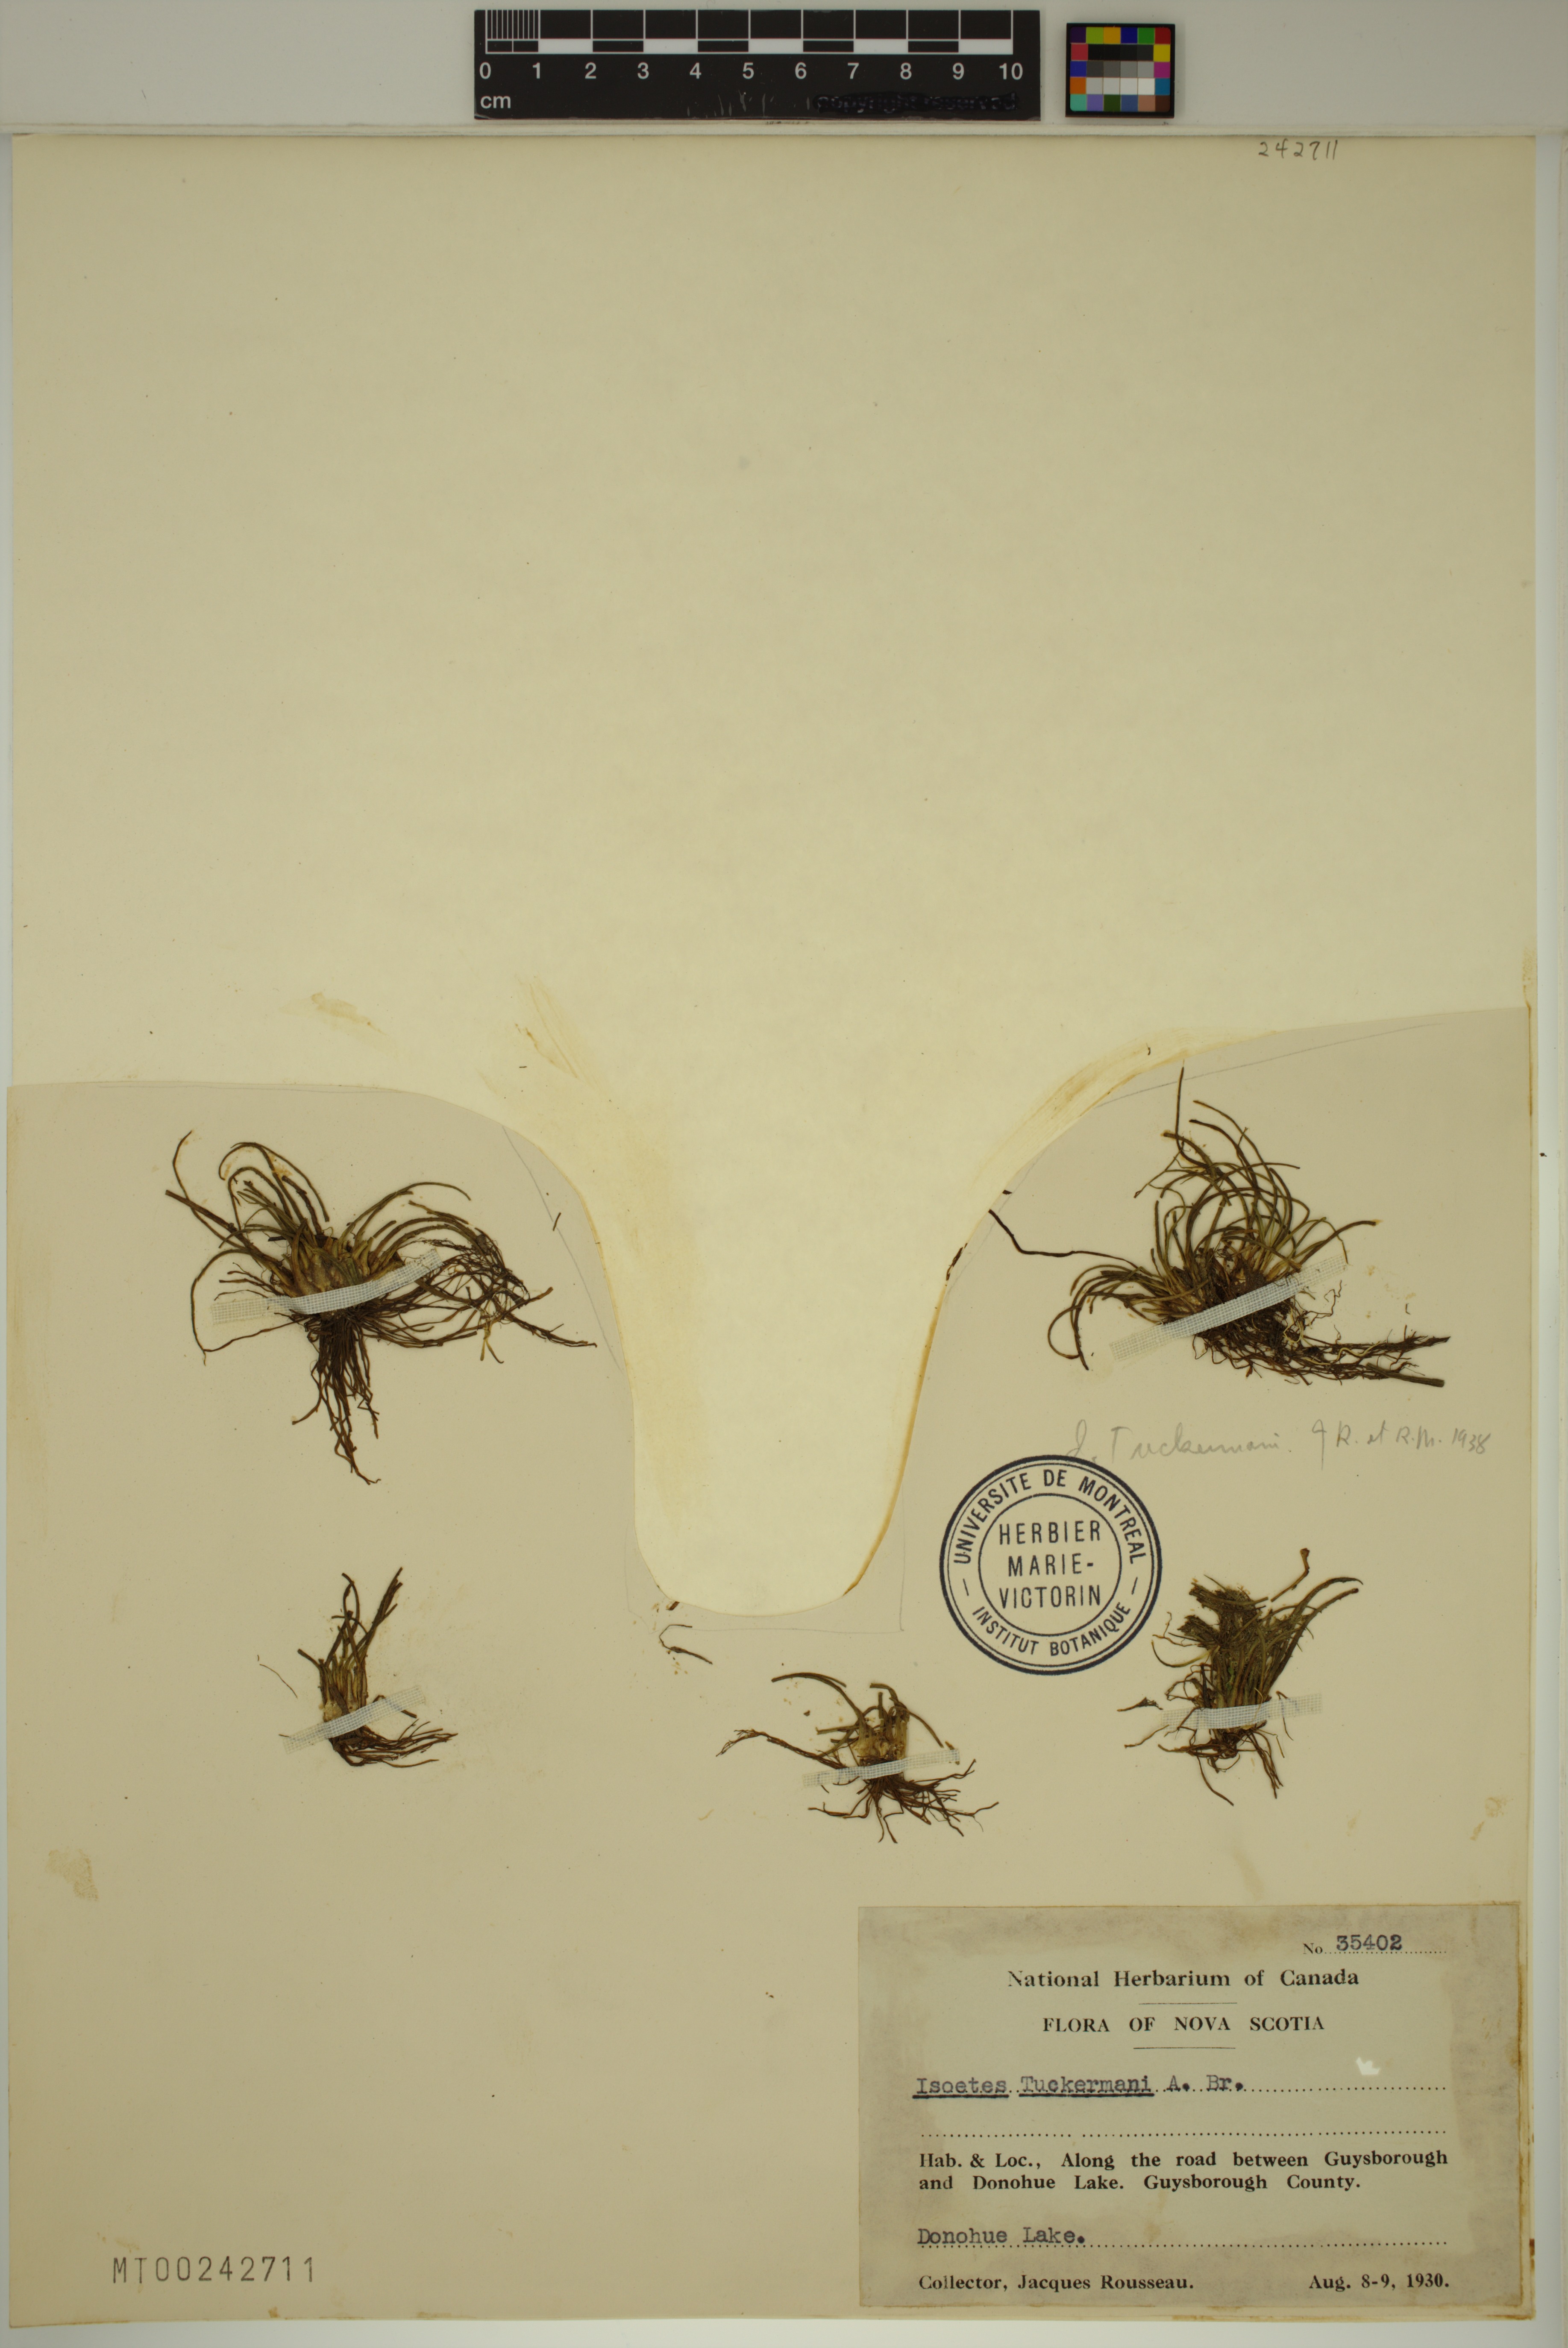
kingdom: Plantae
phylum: Tracheophyta
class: Lycopodiopsida
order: Isoetales
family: Isoetaceae
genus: Isoetes
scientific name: Isoetes tuckermanii
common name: Tuckerman's quillwort
